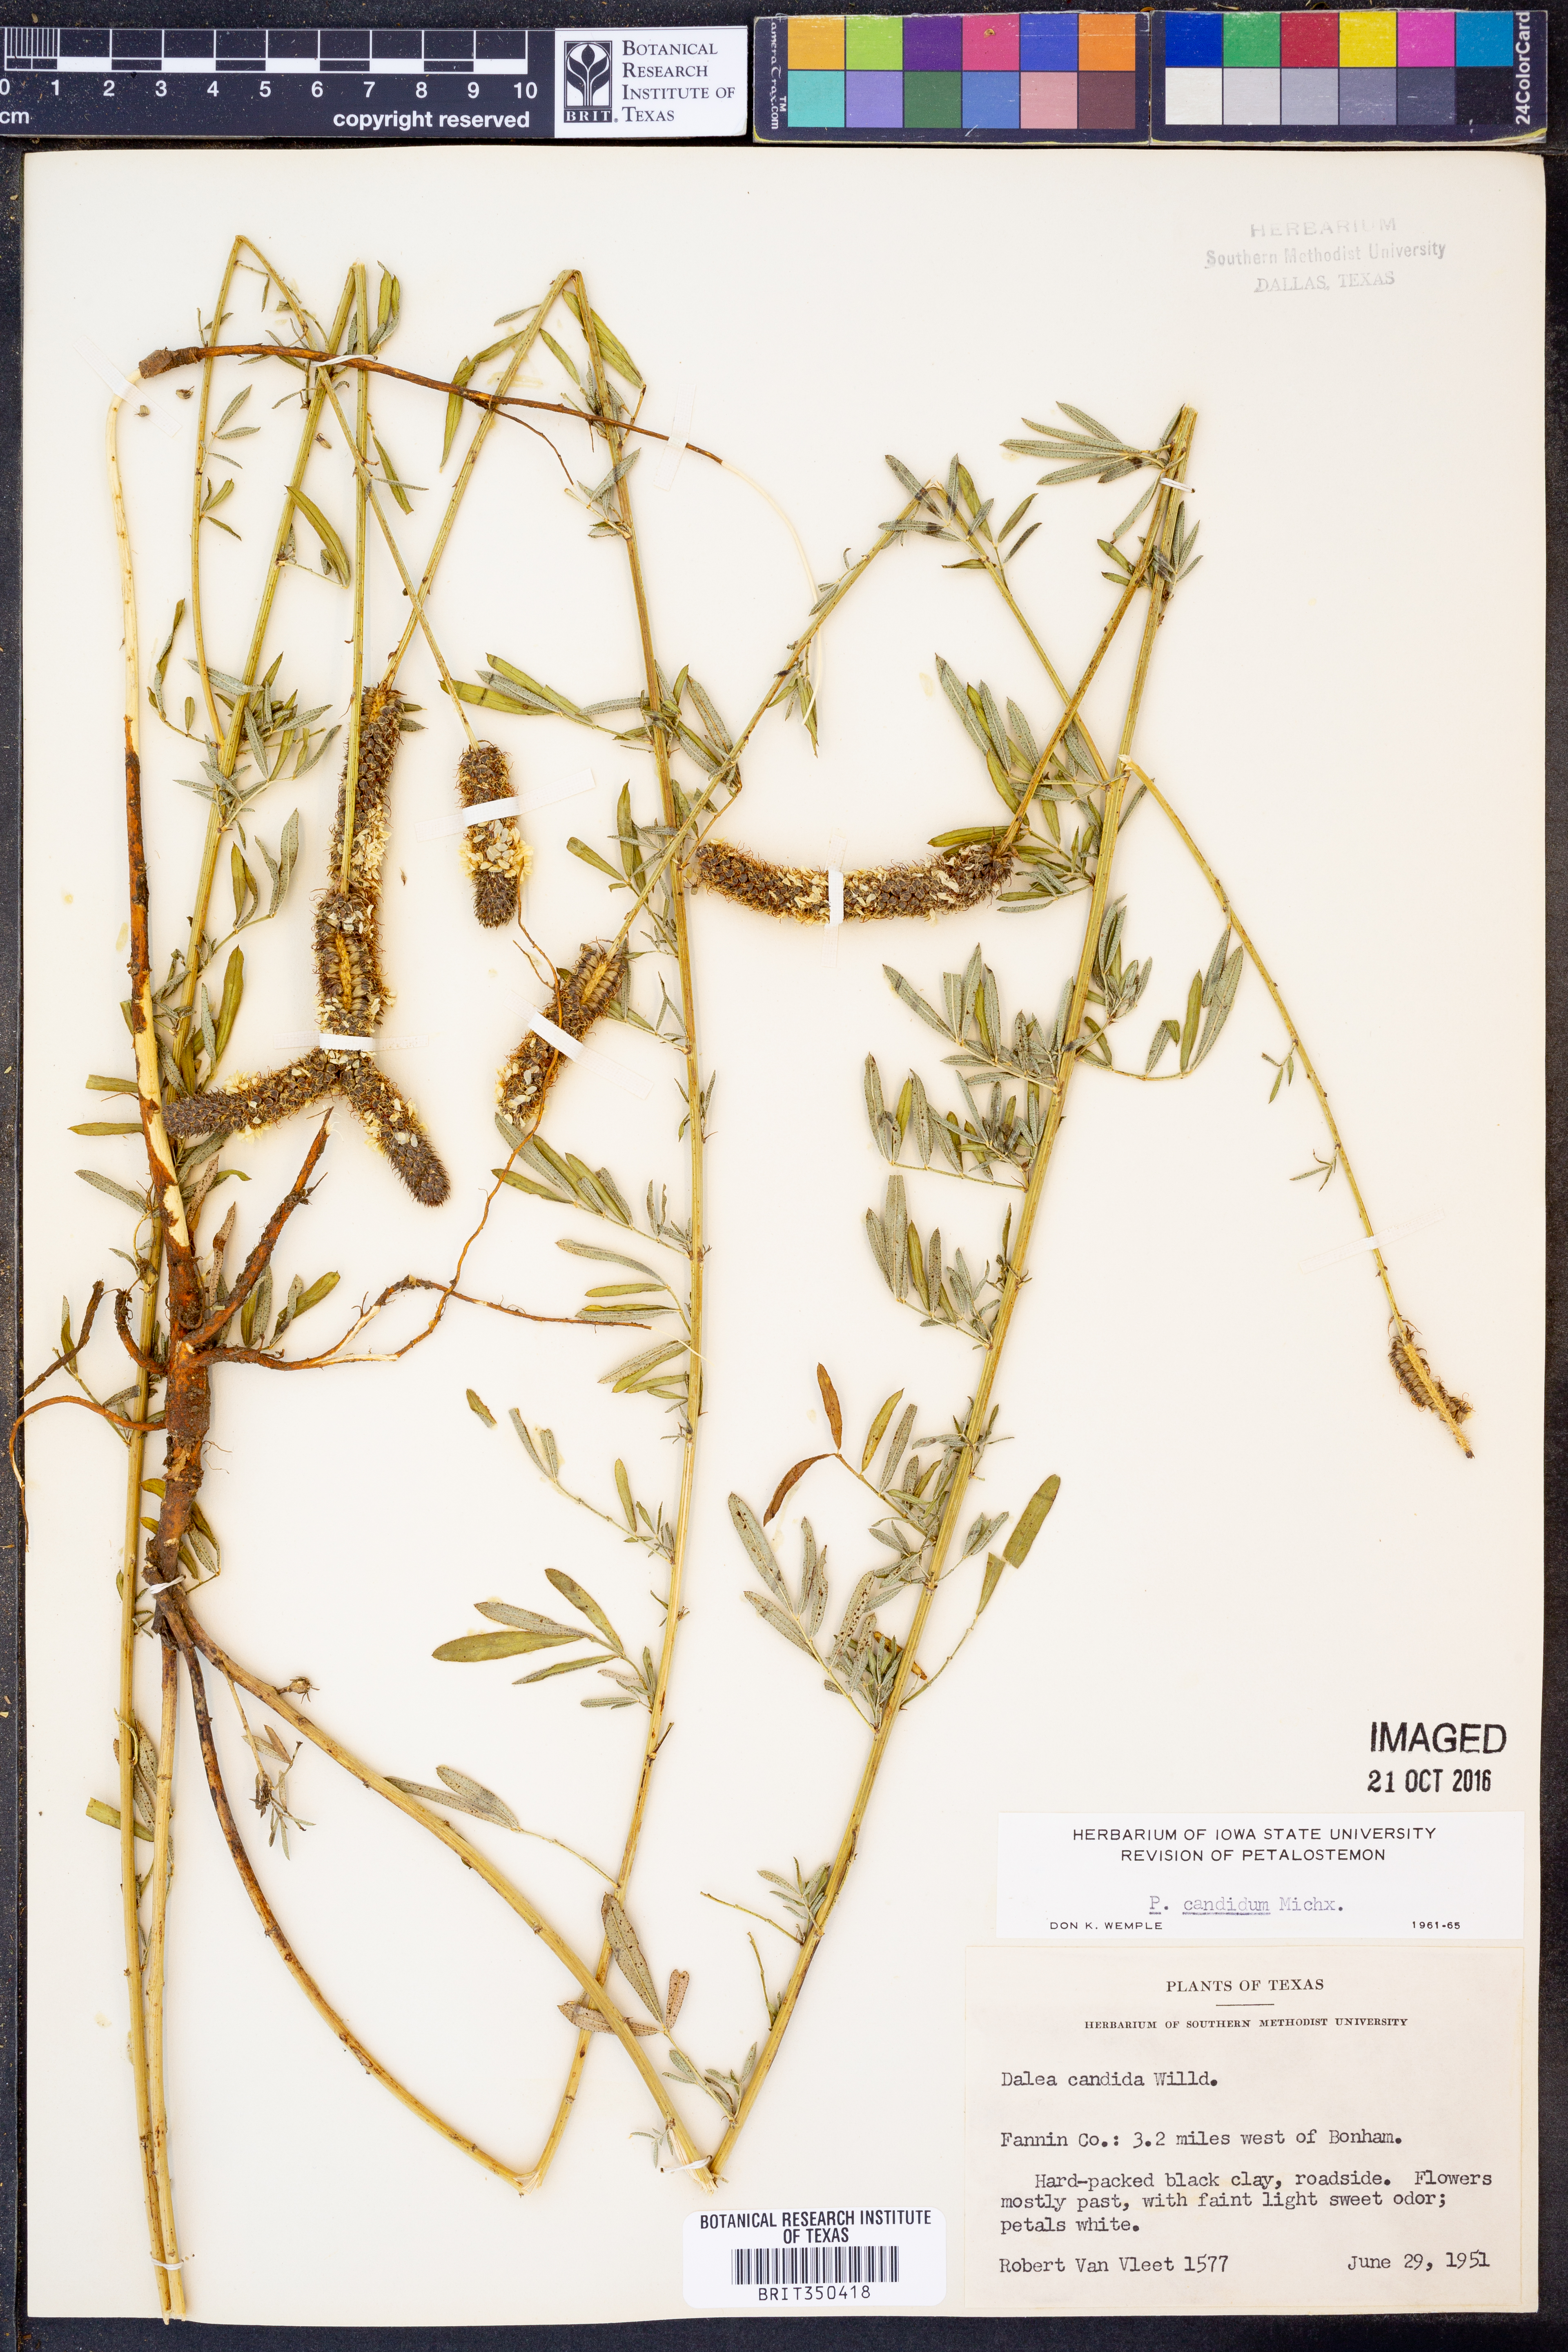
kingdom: Plantae
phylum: Tracheophyta
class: Magnoliopsida
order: Fabales
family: Fabaceae
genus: Dalea
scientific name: Dalea candida
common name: White prairie-clover
